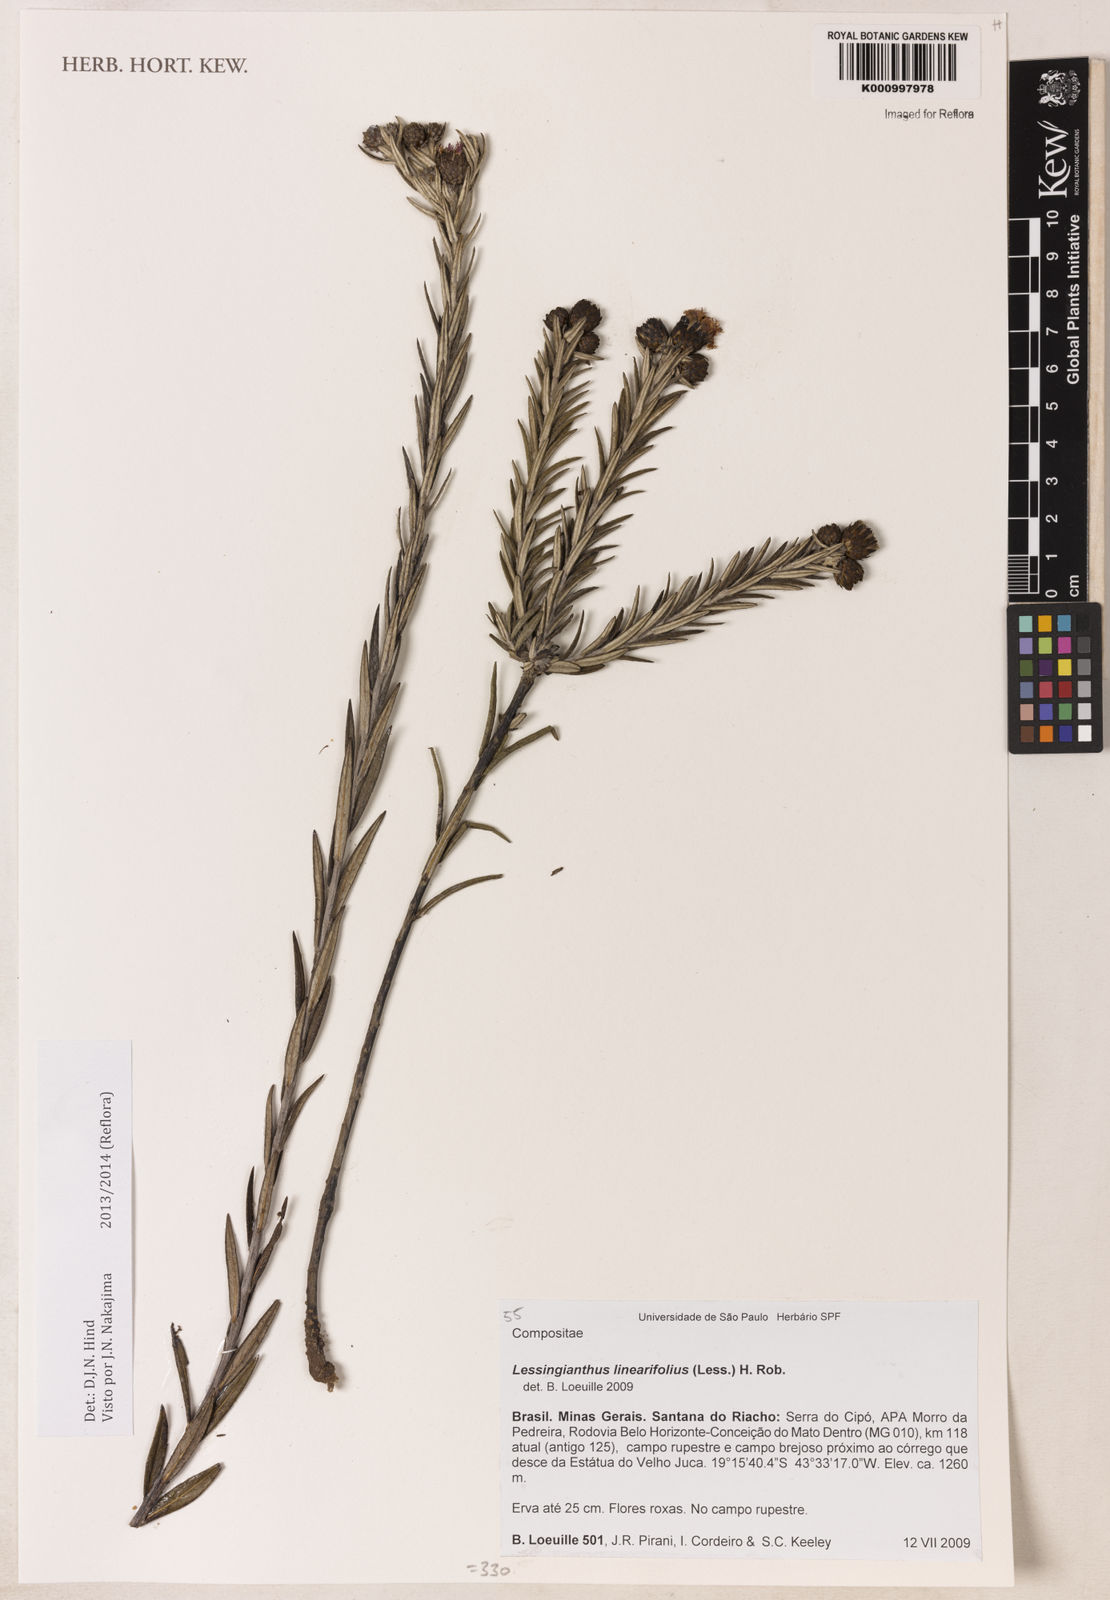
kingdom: Plantae
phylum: Tracheophyta
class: Magnoliopsida
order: Asterales
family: Asteraceae
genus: Lessingianthus
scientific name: Lessingianthus rosmarinifolius
